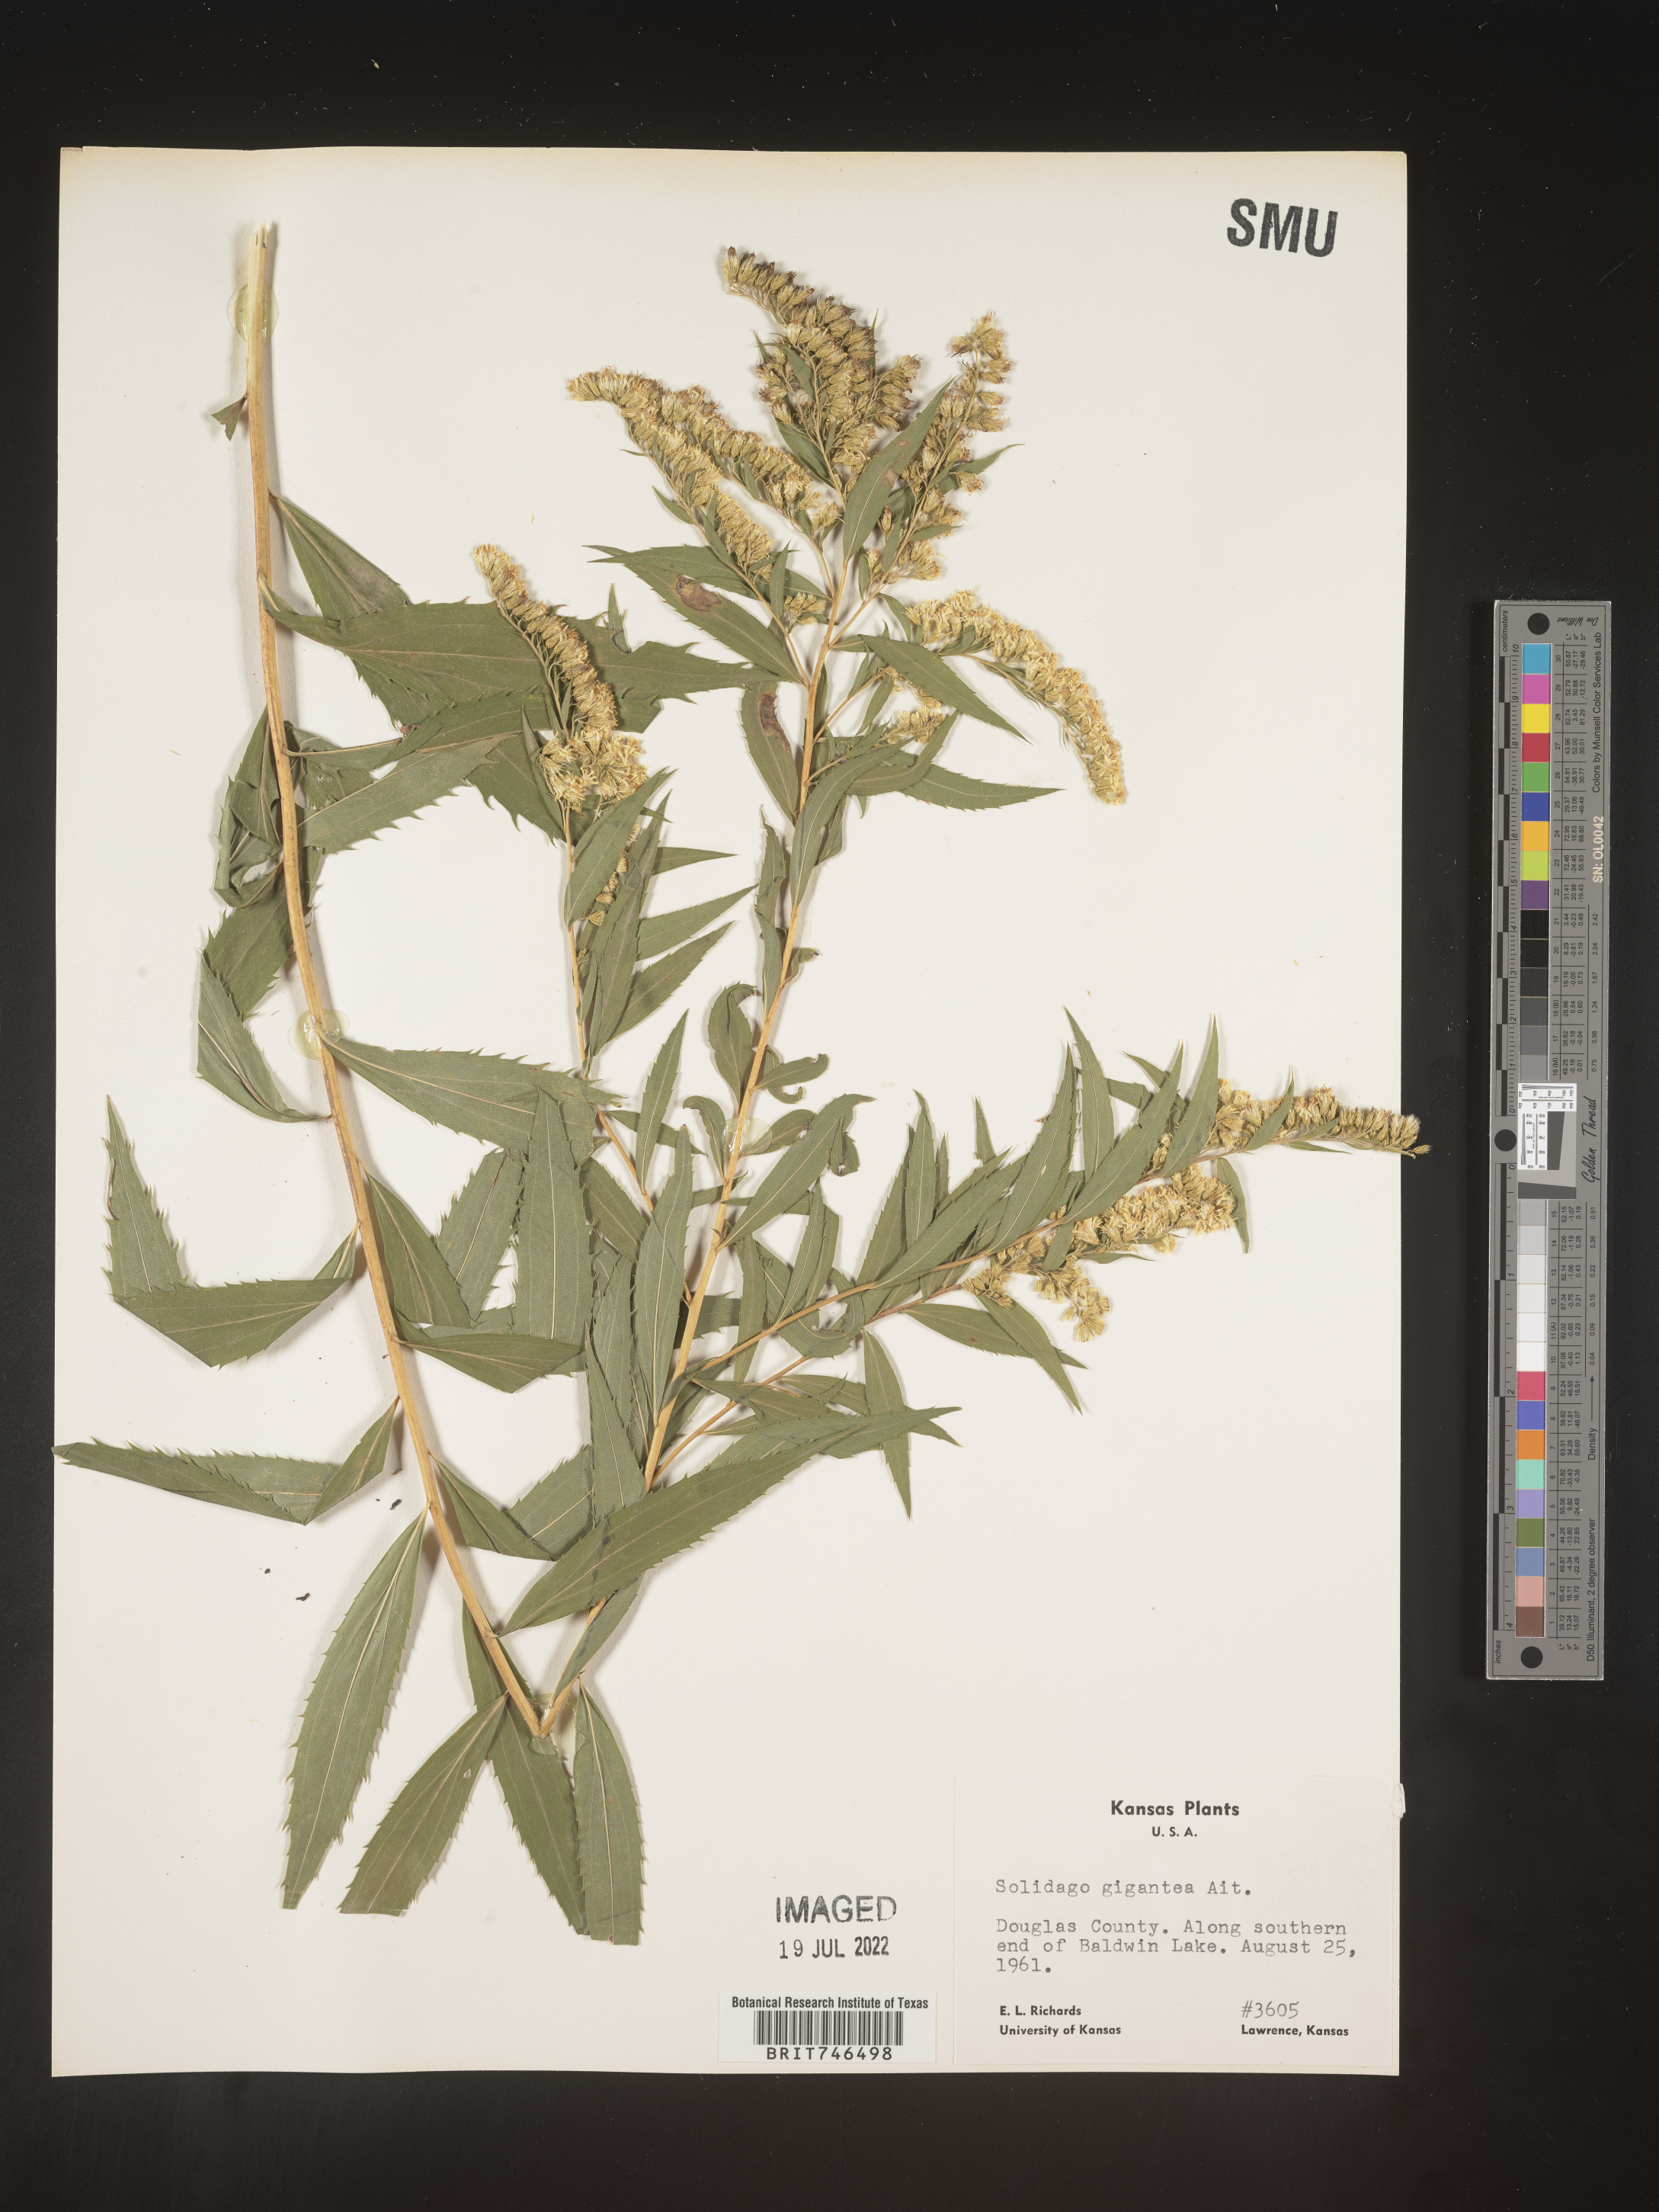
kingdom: Plantae
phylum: Tracheophyta
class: Magnoliopsida
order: Asterales
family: Asteraceae
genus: Solidago
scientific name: Solidago gigantea
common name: Giant goldenrod
